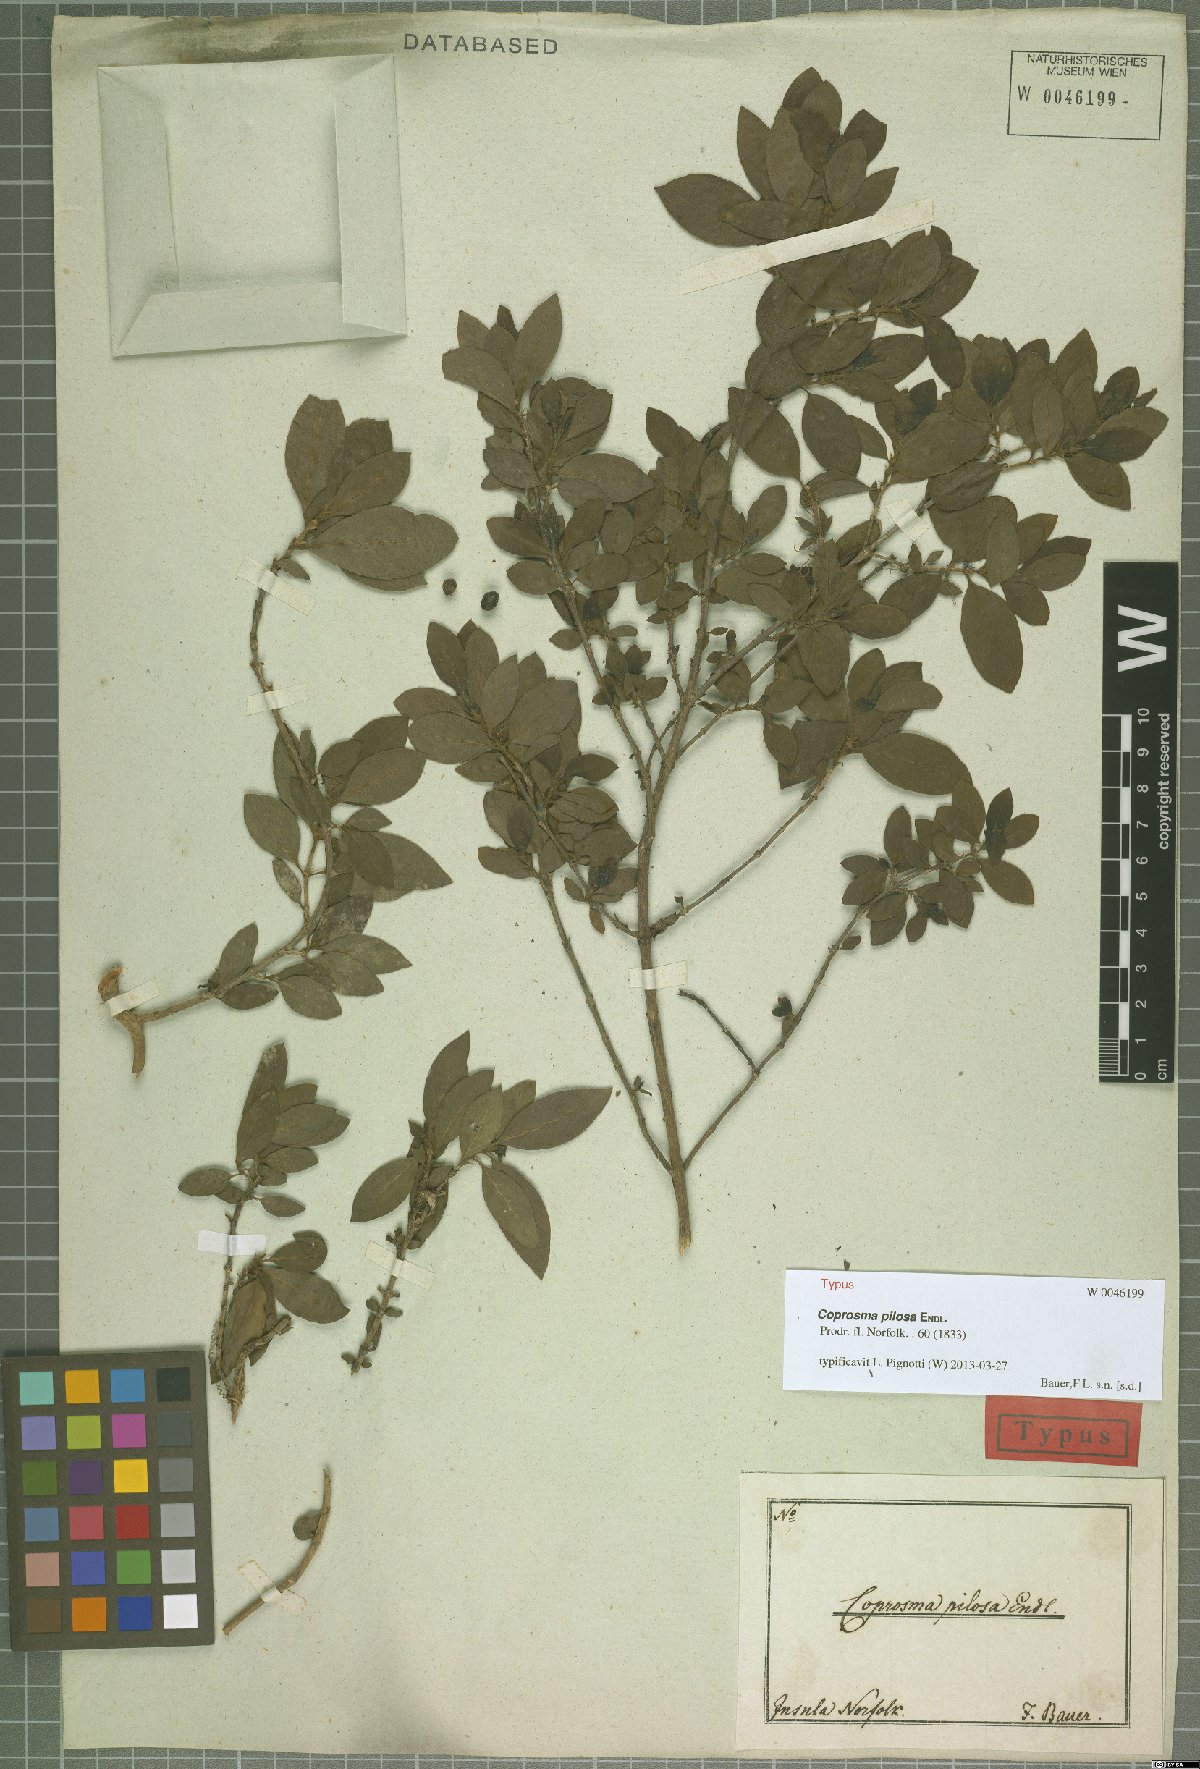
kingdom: Plantae
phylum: Tracheophyta
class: Magnoliopsida
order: Gentianales
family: Rubiaceae
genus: Coprosma
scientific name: Coprosma pilosa
